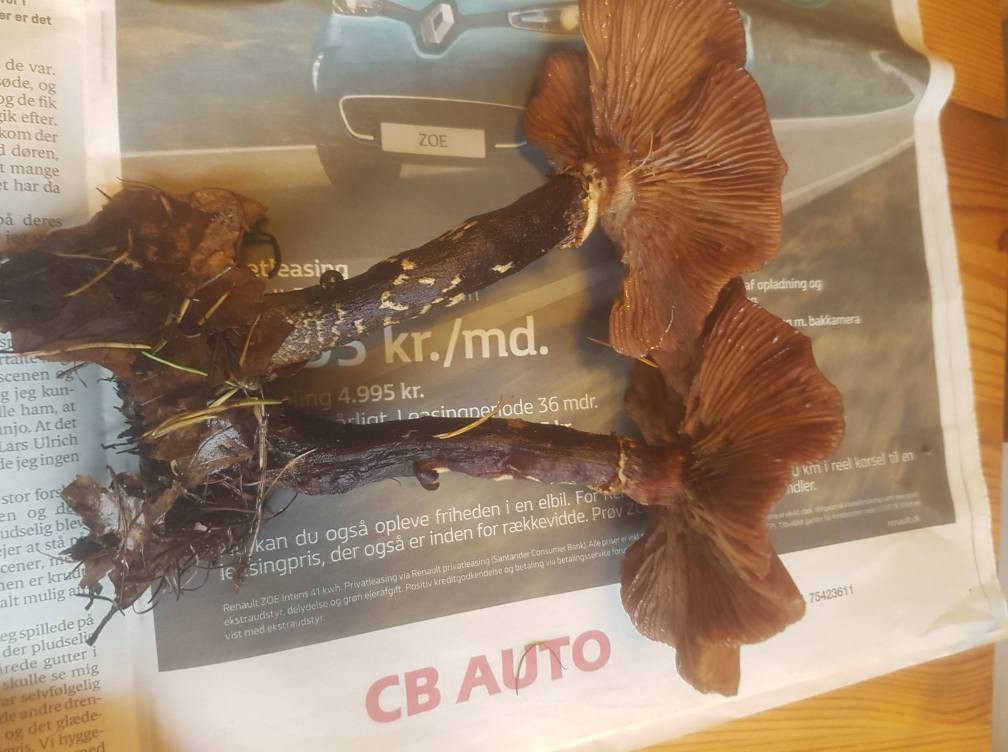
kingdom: Fungi
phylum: Basidiomycota
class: Agaricomycetes
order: Agaricales
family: Physalacriaceae
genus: Armillaria
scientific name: Armillaria
